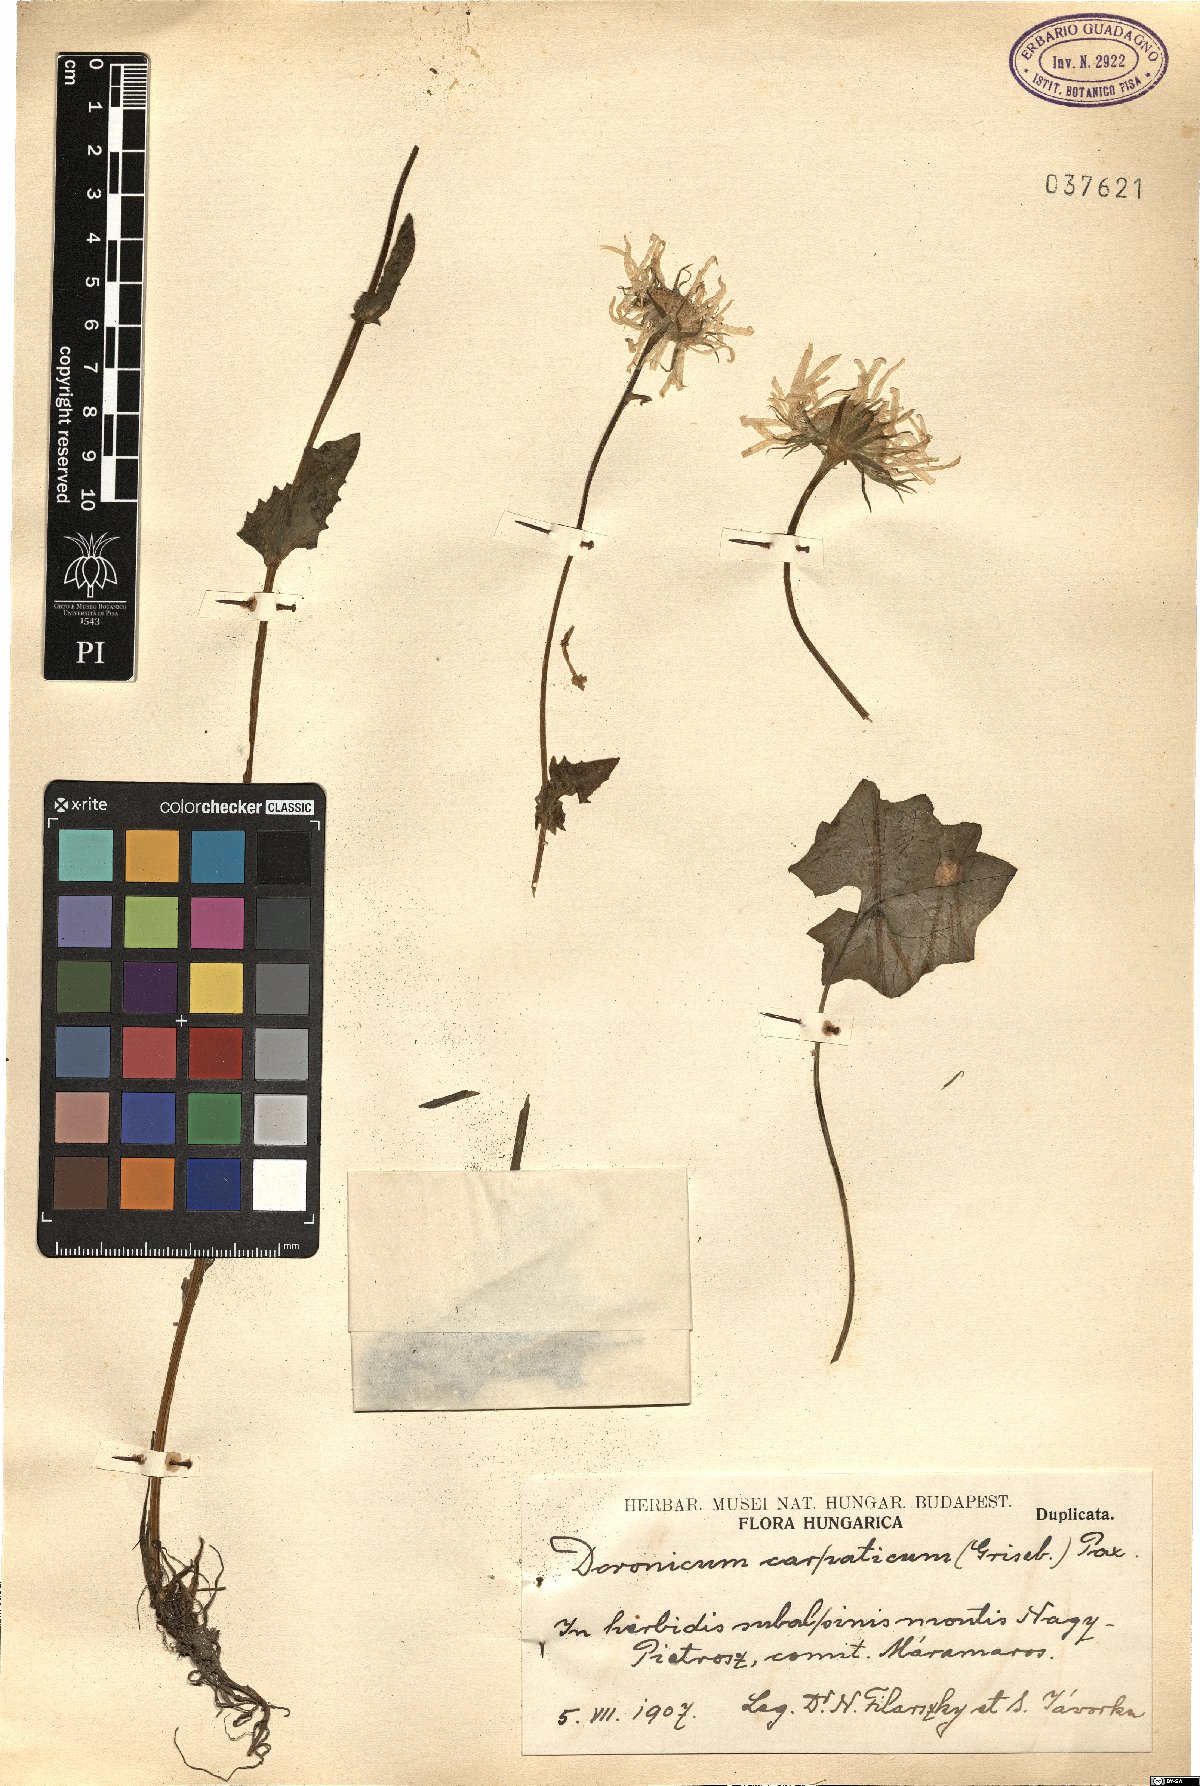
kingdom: Plantae
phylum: Tracheophyta
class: Magnoliopsida
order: Asterales
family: Asteraceae
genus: Doronicum
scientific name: Doronicum carpaticum
